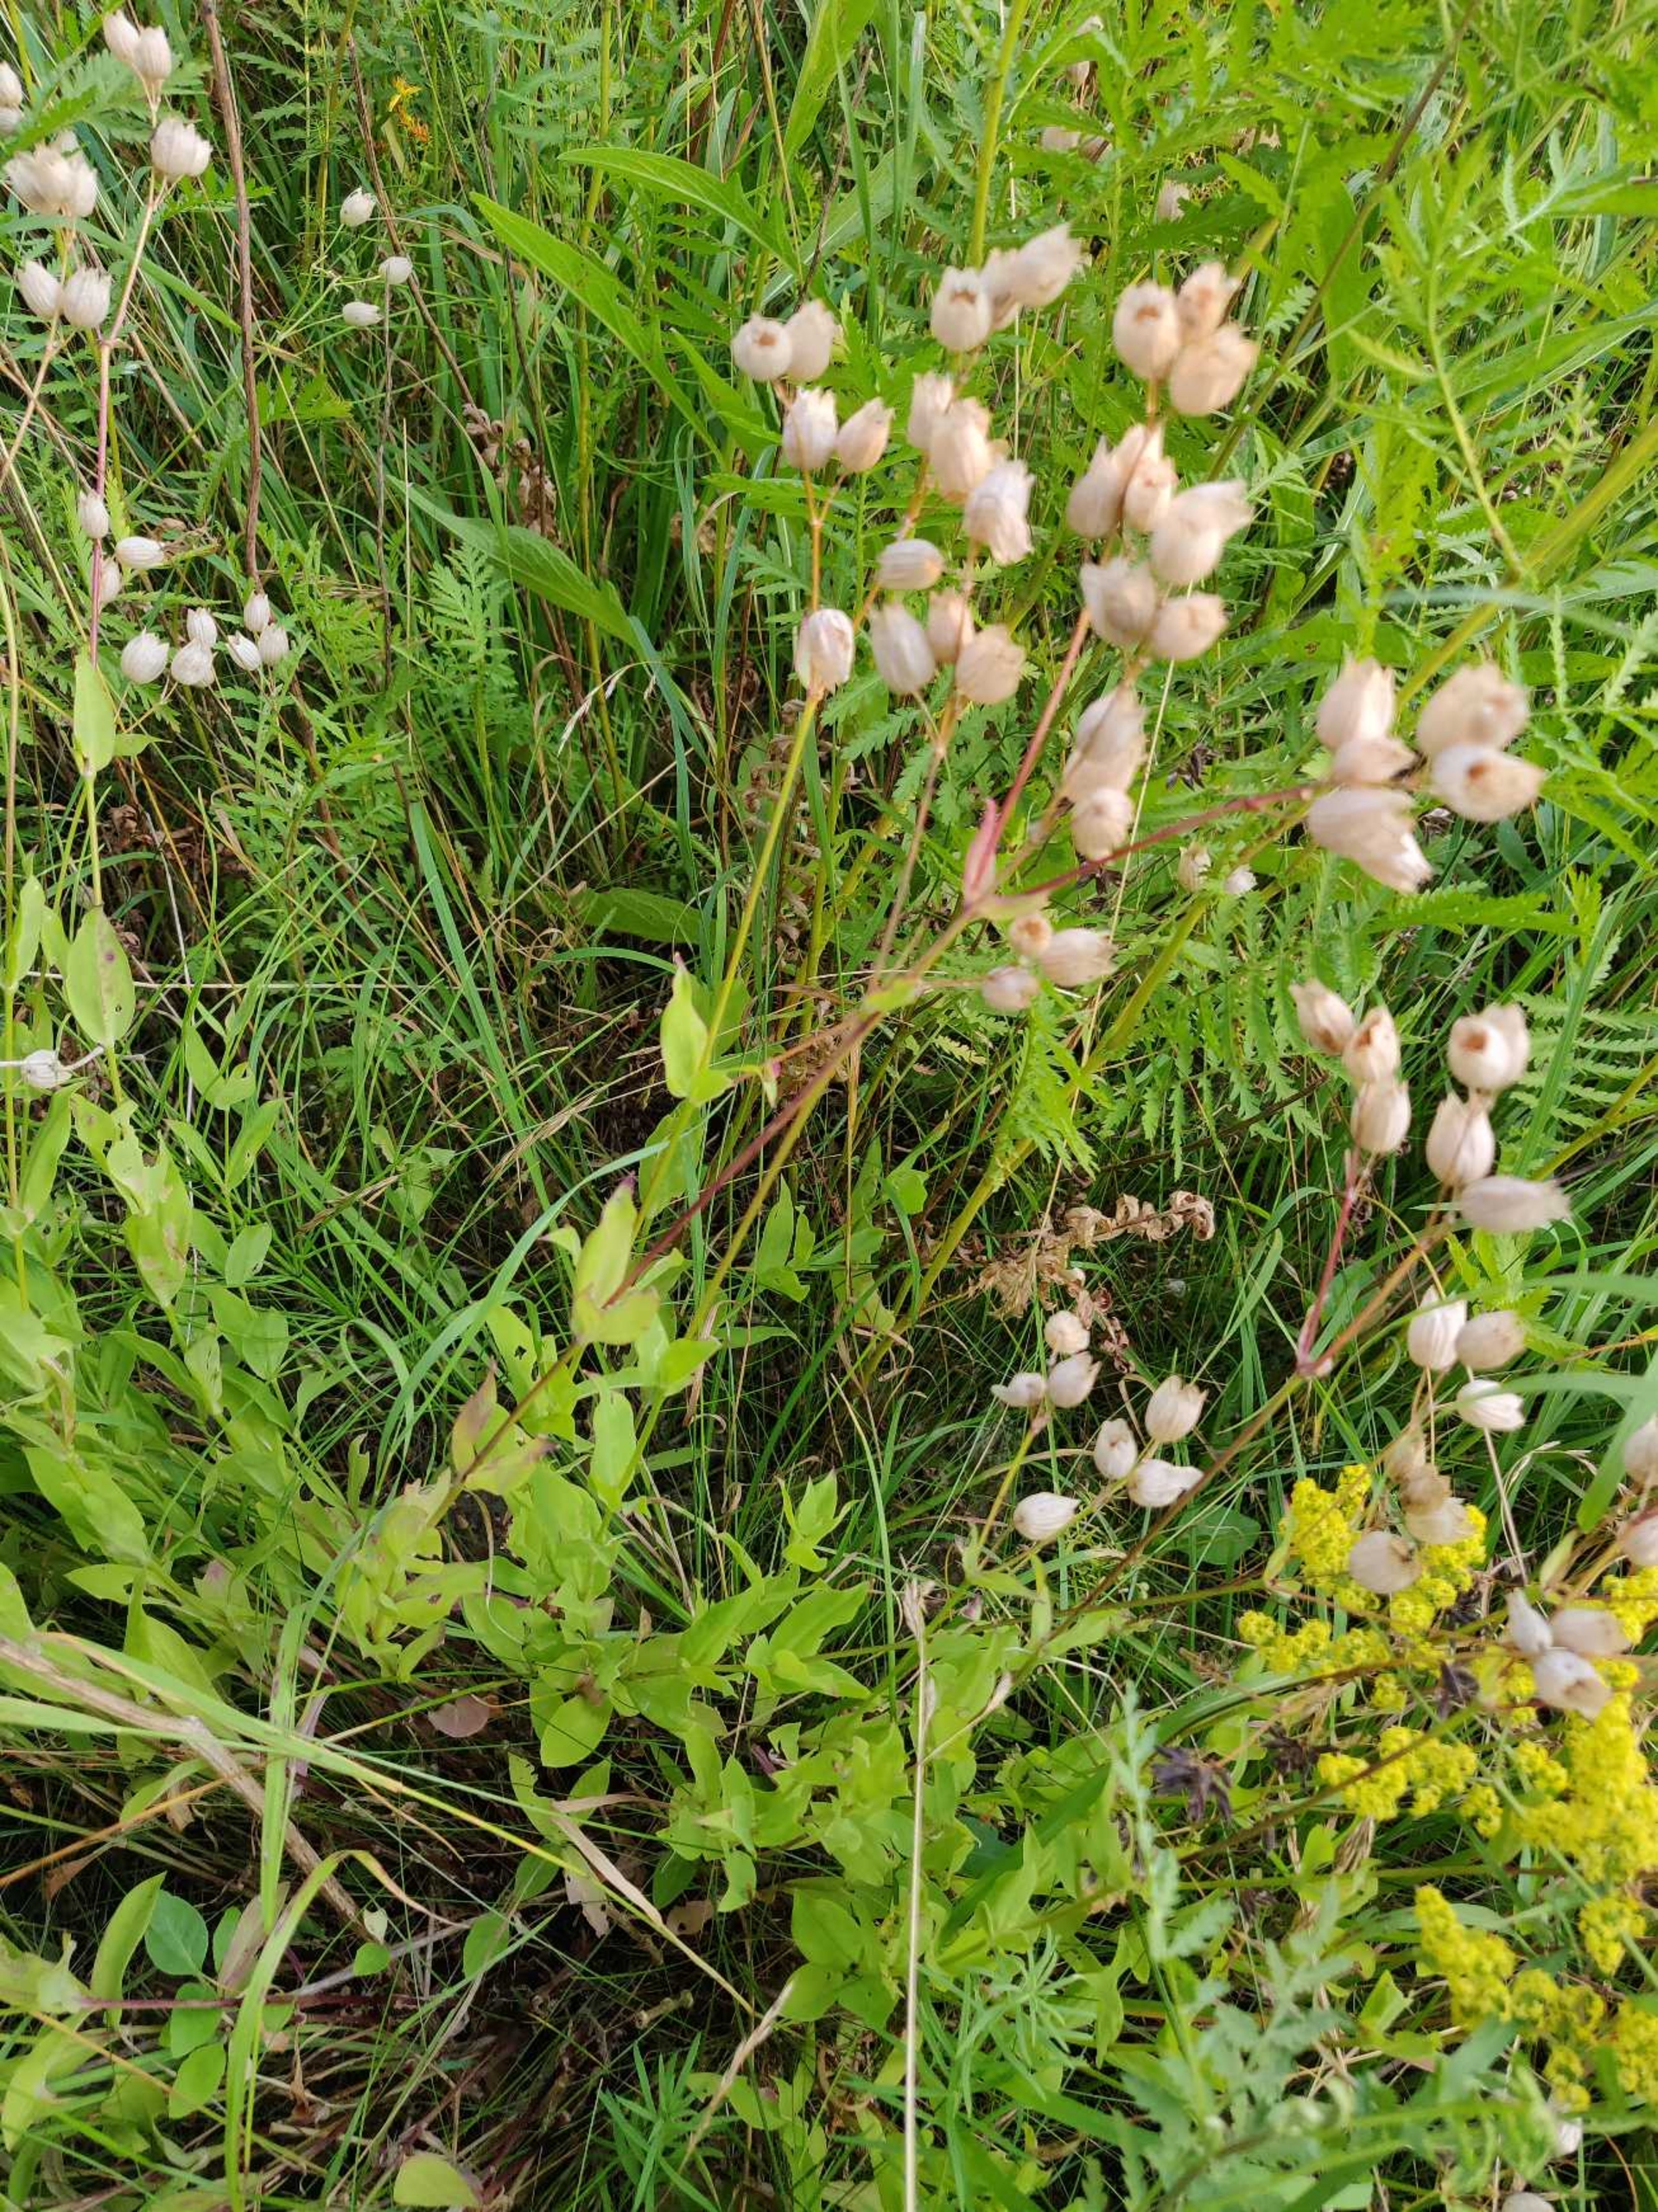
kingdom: Plantae
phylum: Tracheophyta
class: Magnoliopsida
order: Caryophyllales
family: Caryophyllaceae
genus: Silene
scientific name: Silene vulgaris
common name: Blæresmælde
